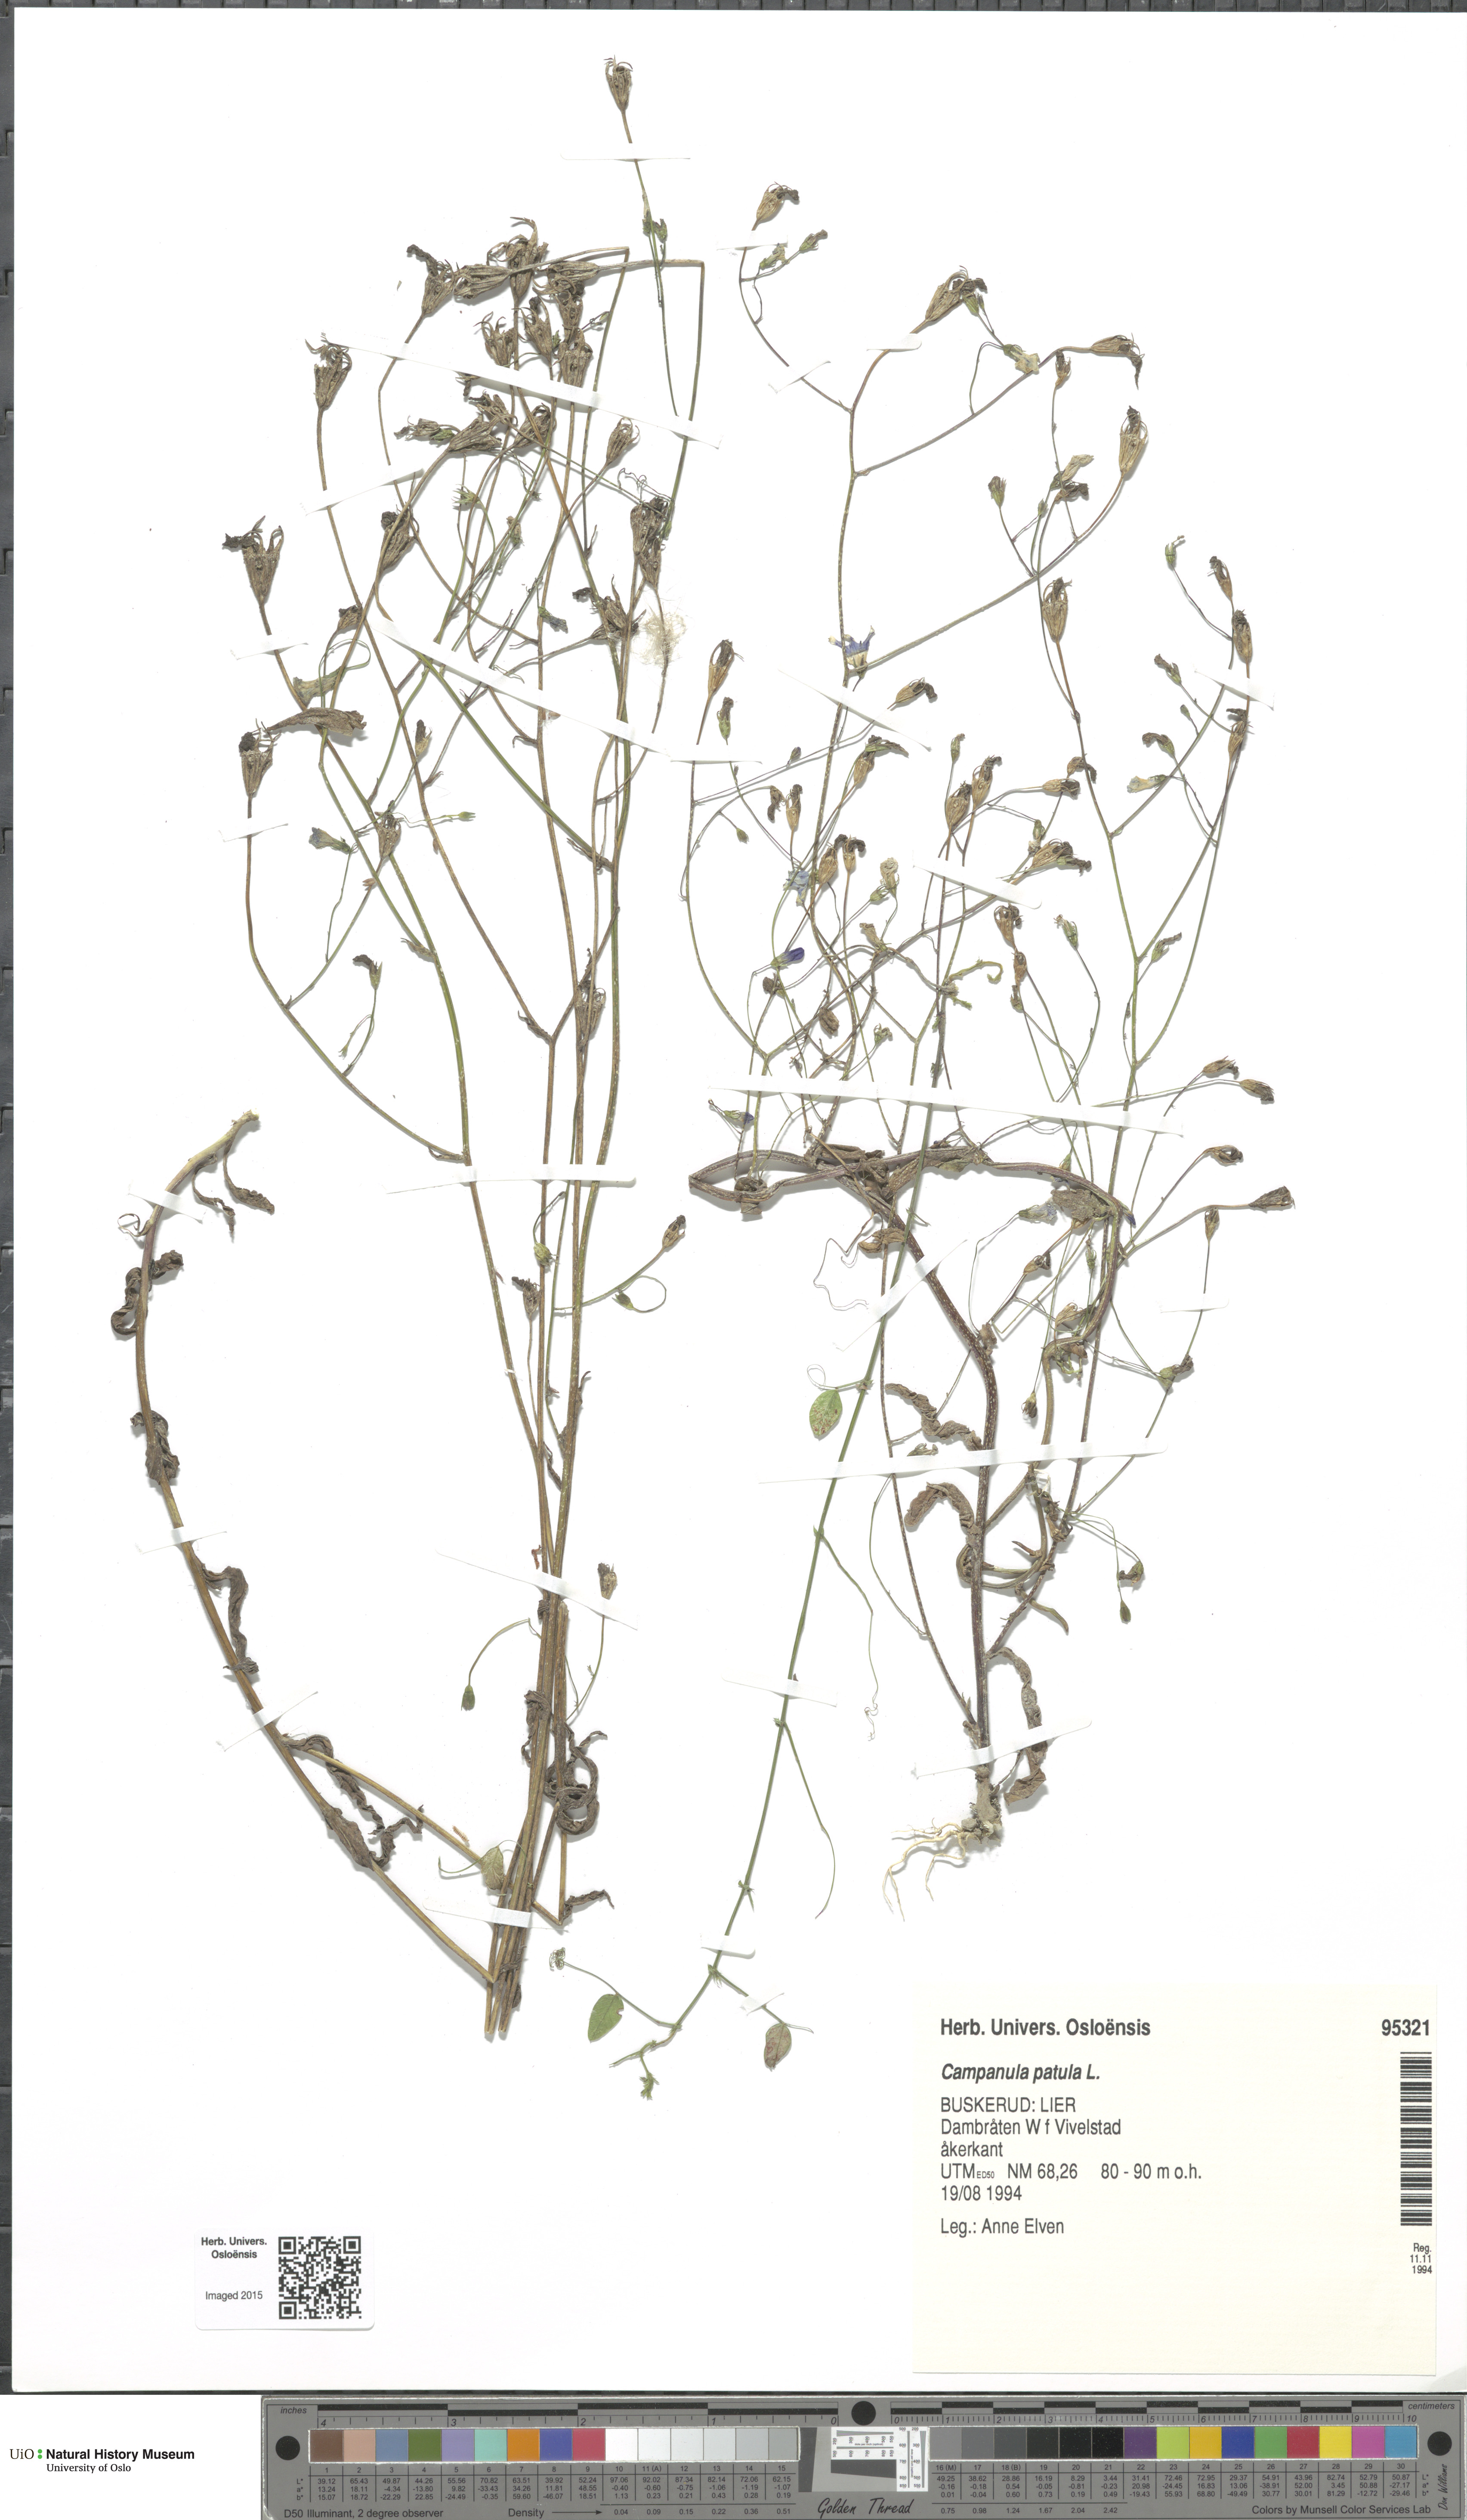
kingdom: Plantae
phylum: Tracheophyta
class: Magnoliopsida
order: Asterales
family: Campanulaceae
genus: Campanula
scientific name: Campanula patula
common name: Spreading bellflower
